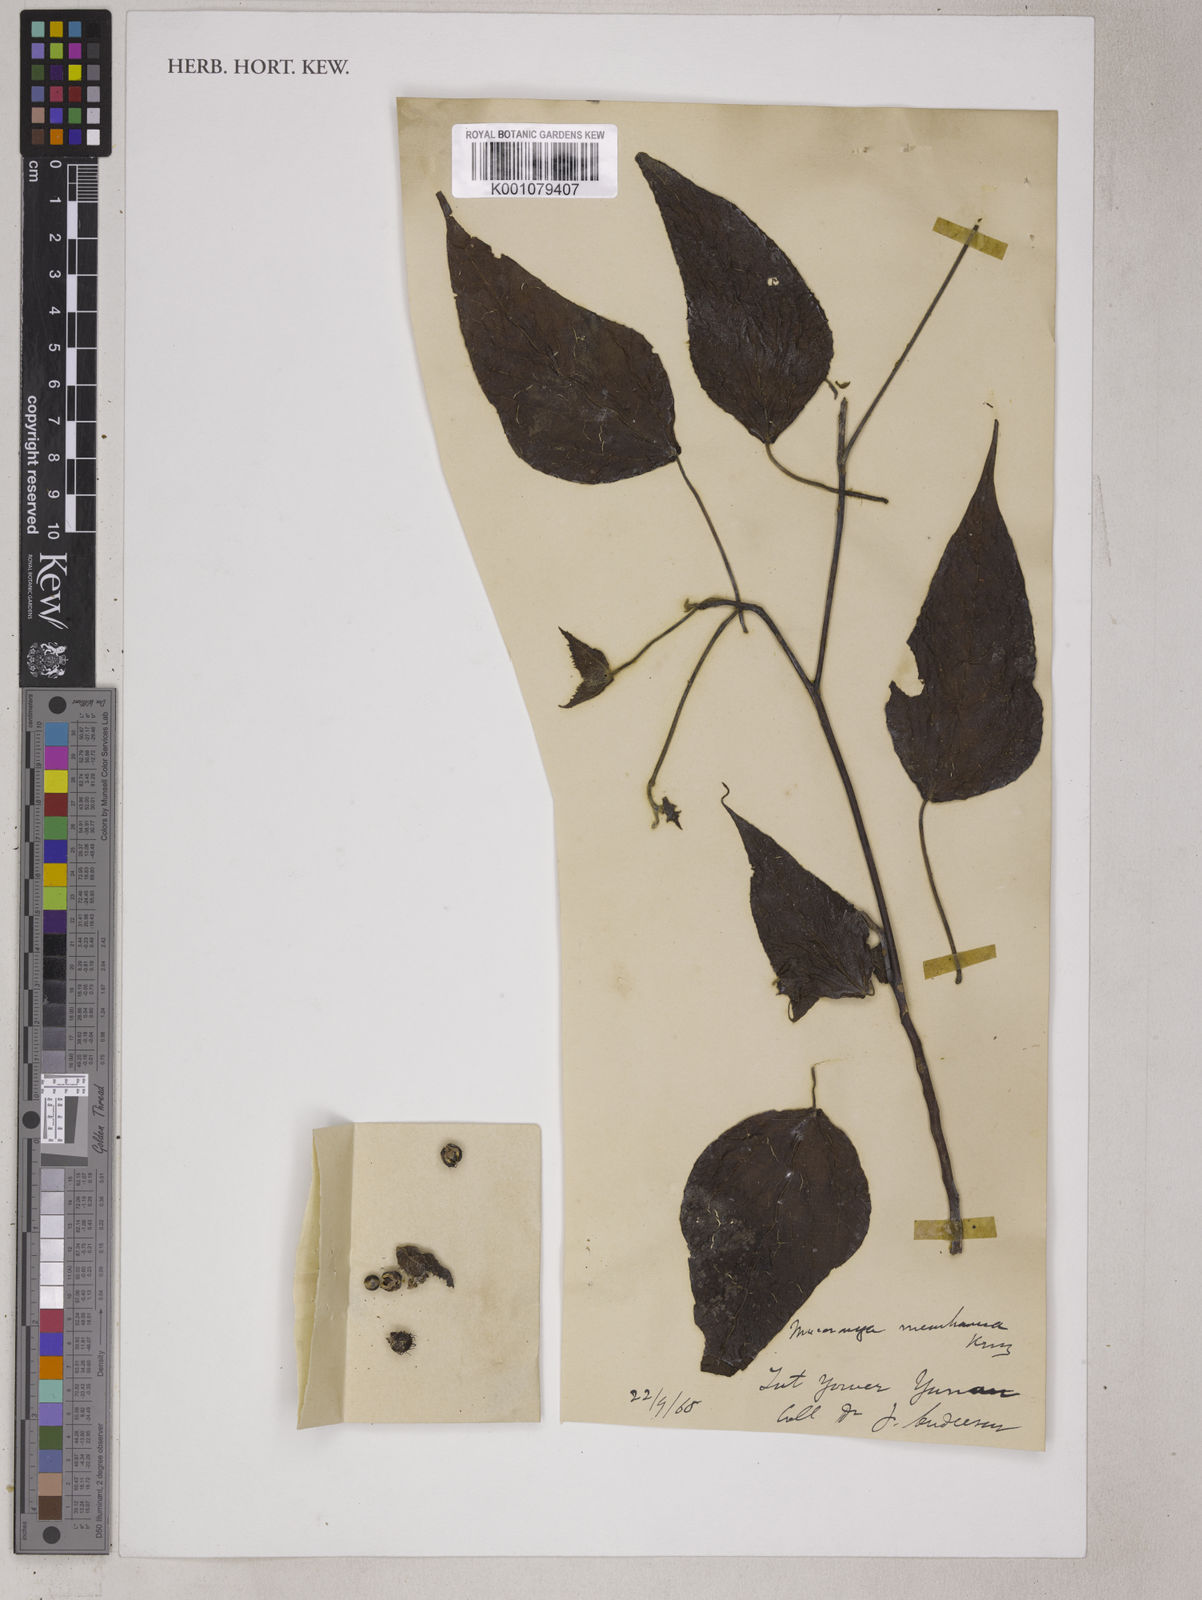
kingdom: Plantae
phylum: Tracheophyta
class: Magnoliopsida
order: Malpighiales
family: Euphorbiaceae
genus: Macaranga
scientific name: Macaranga kurzii
